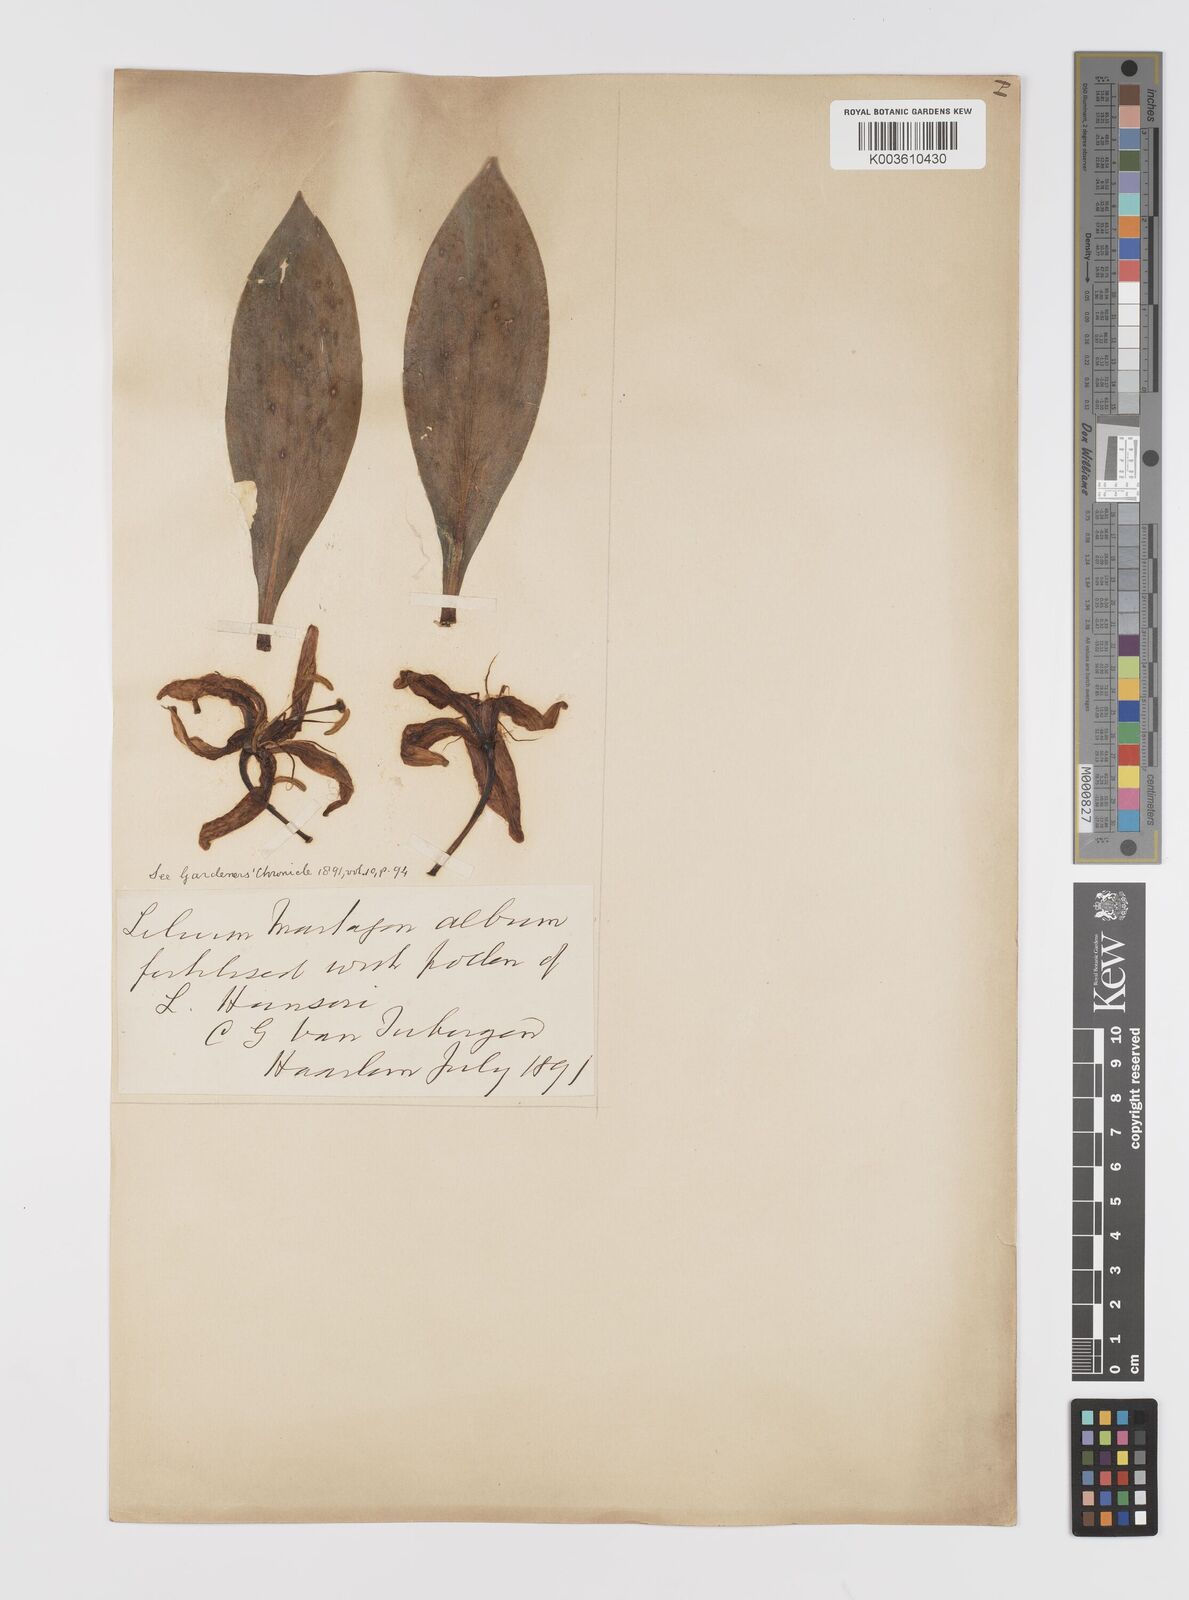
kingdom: Plantae
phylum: Tracheophyta
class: Liliopsida
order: Liliales
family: Liliaceae
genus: Lilium
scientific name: Lilium martagon
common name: Martagon lily
